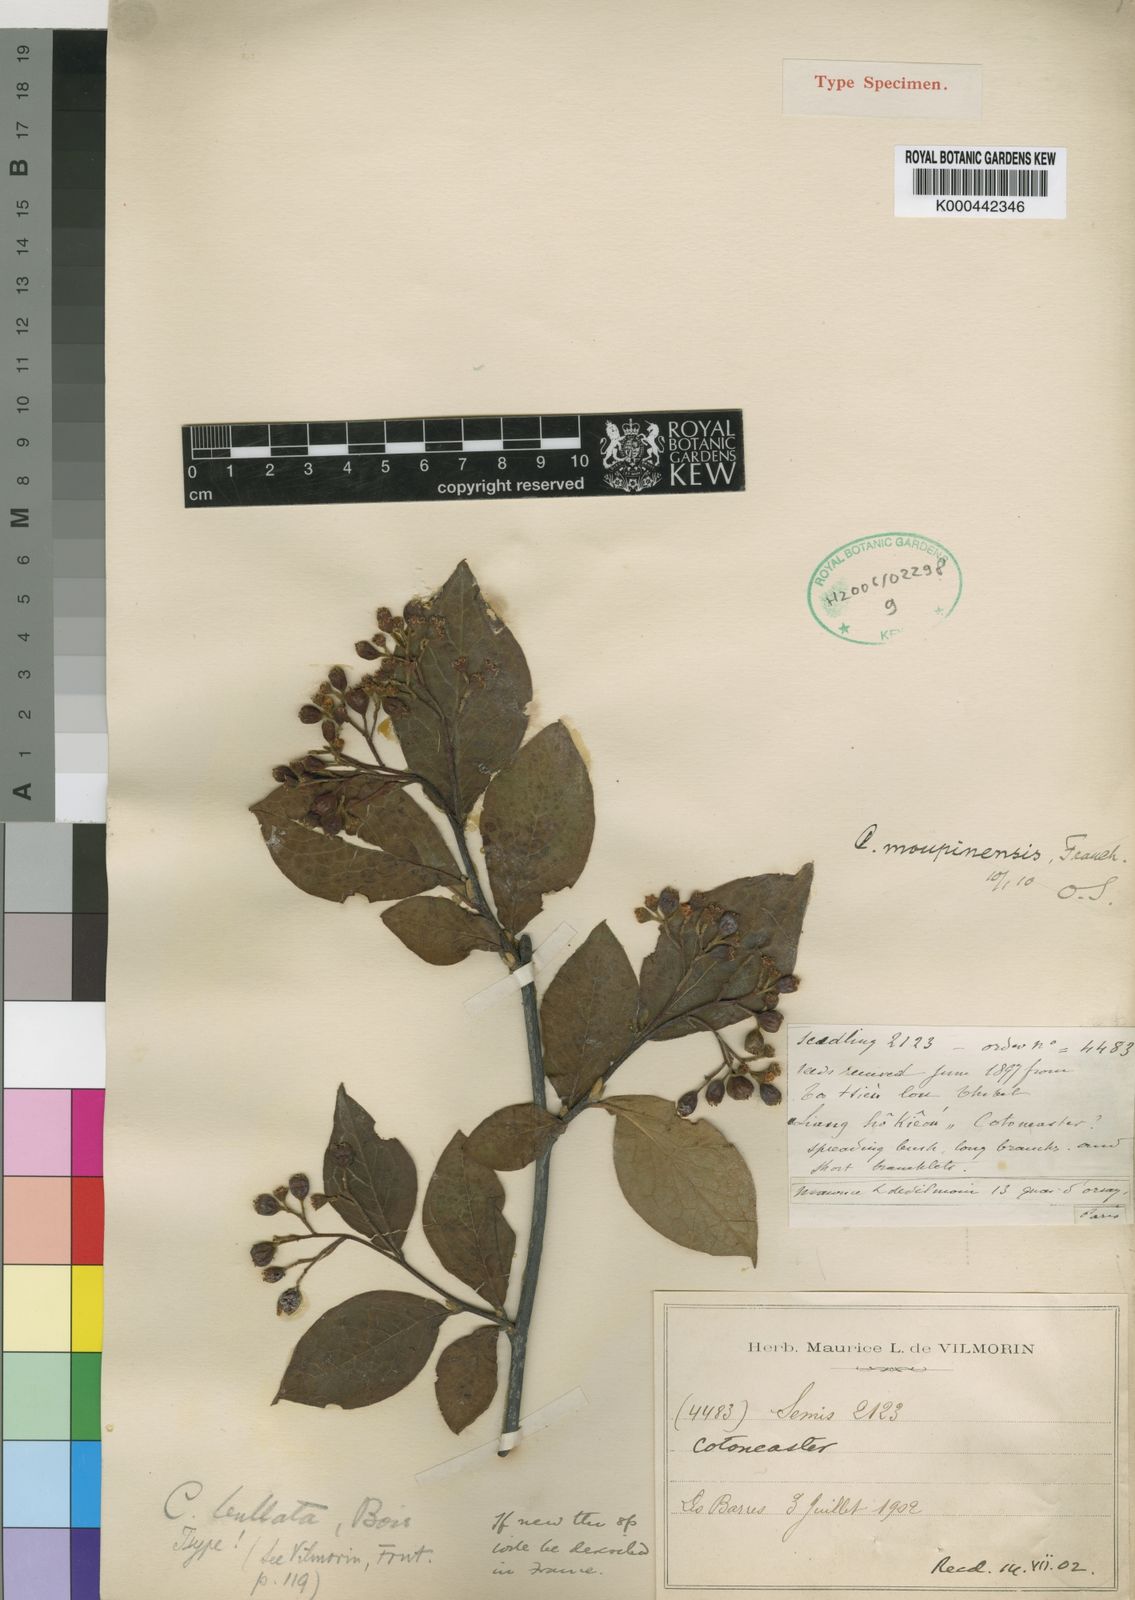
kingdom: Plantae
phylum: Tracheophyta
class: Magnoliopsida
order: Rosales
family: Rosaceae
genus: Cotoneaster
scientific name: Cotoneaster bullatus
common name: Hollyberry cotoneaster
